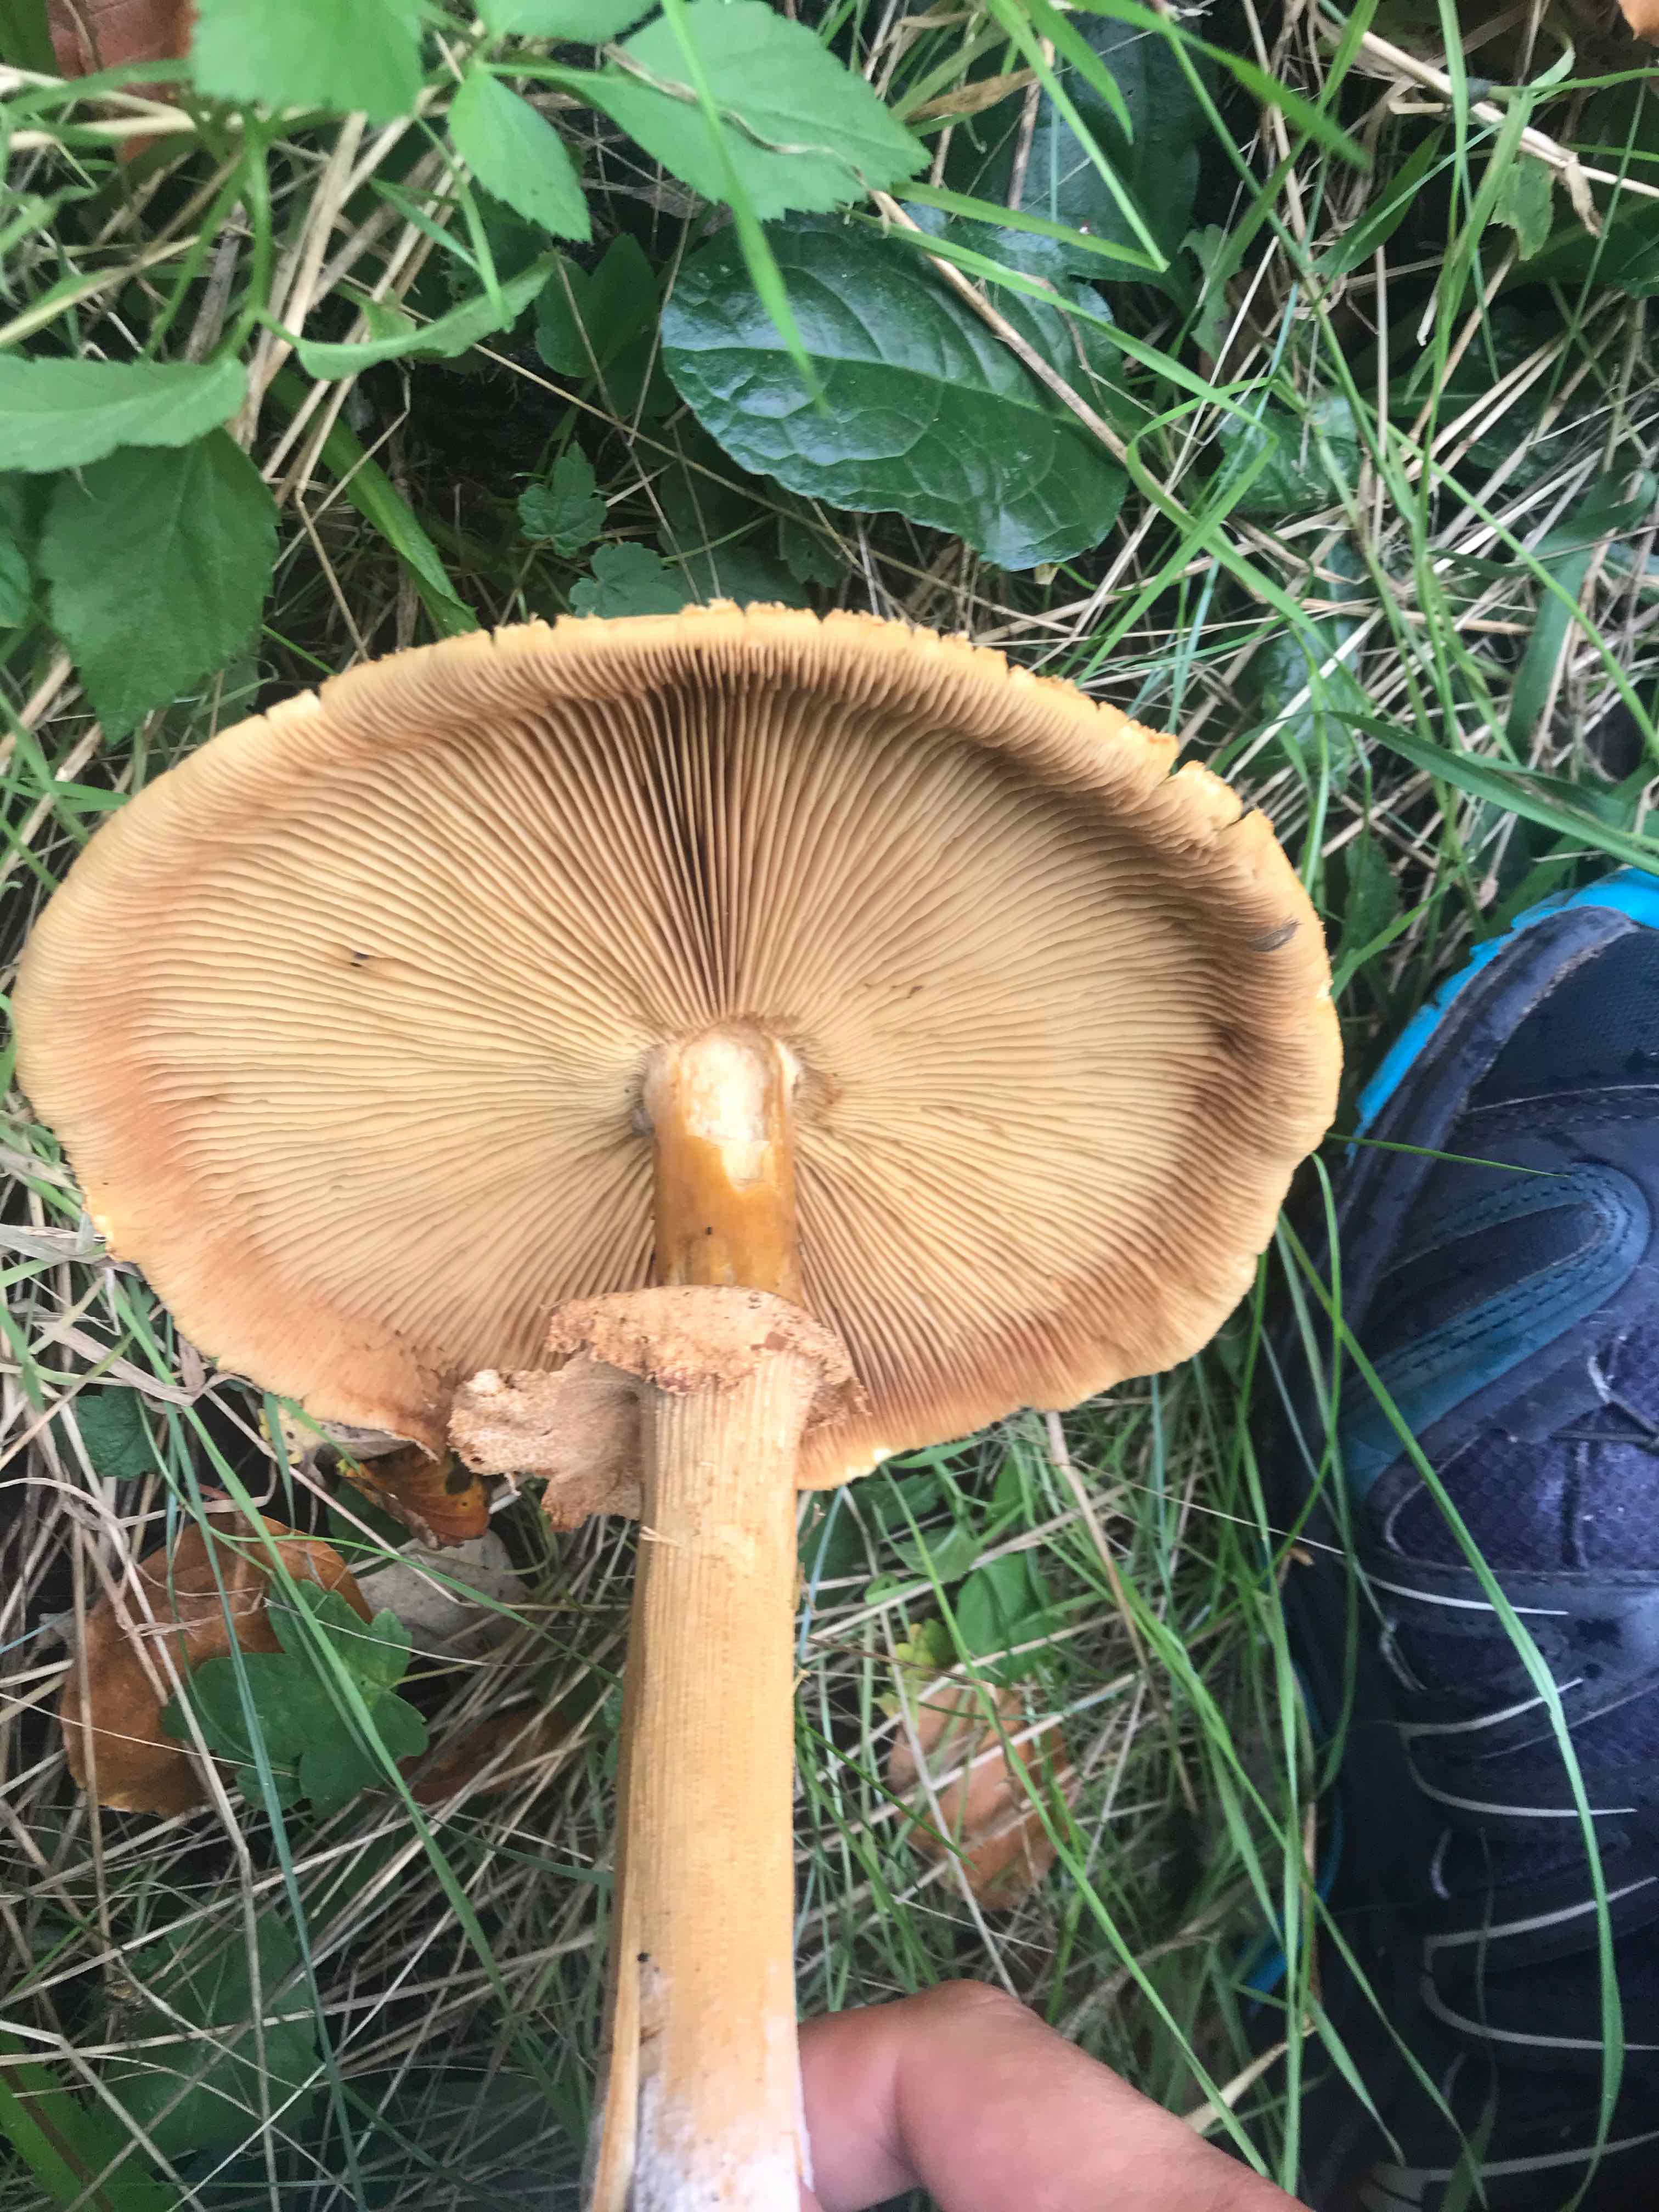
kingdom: Fungi
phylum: Basidiomycota
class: Agaricomycetes
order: Agaricales
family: Tricholomataceae
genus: Phaeolepiota
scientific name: Phaeolepiota aurea
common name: gyldenhat
